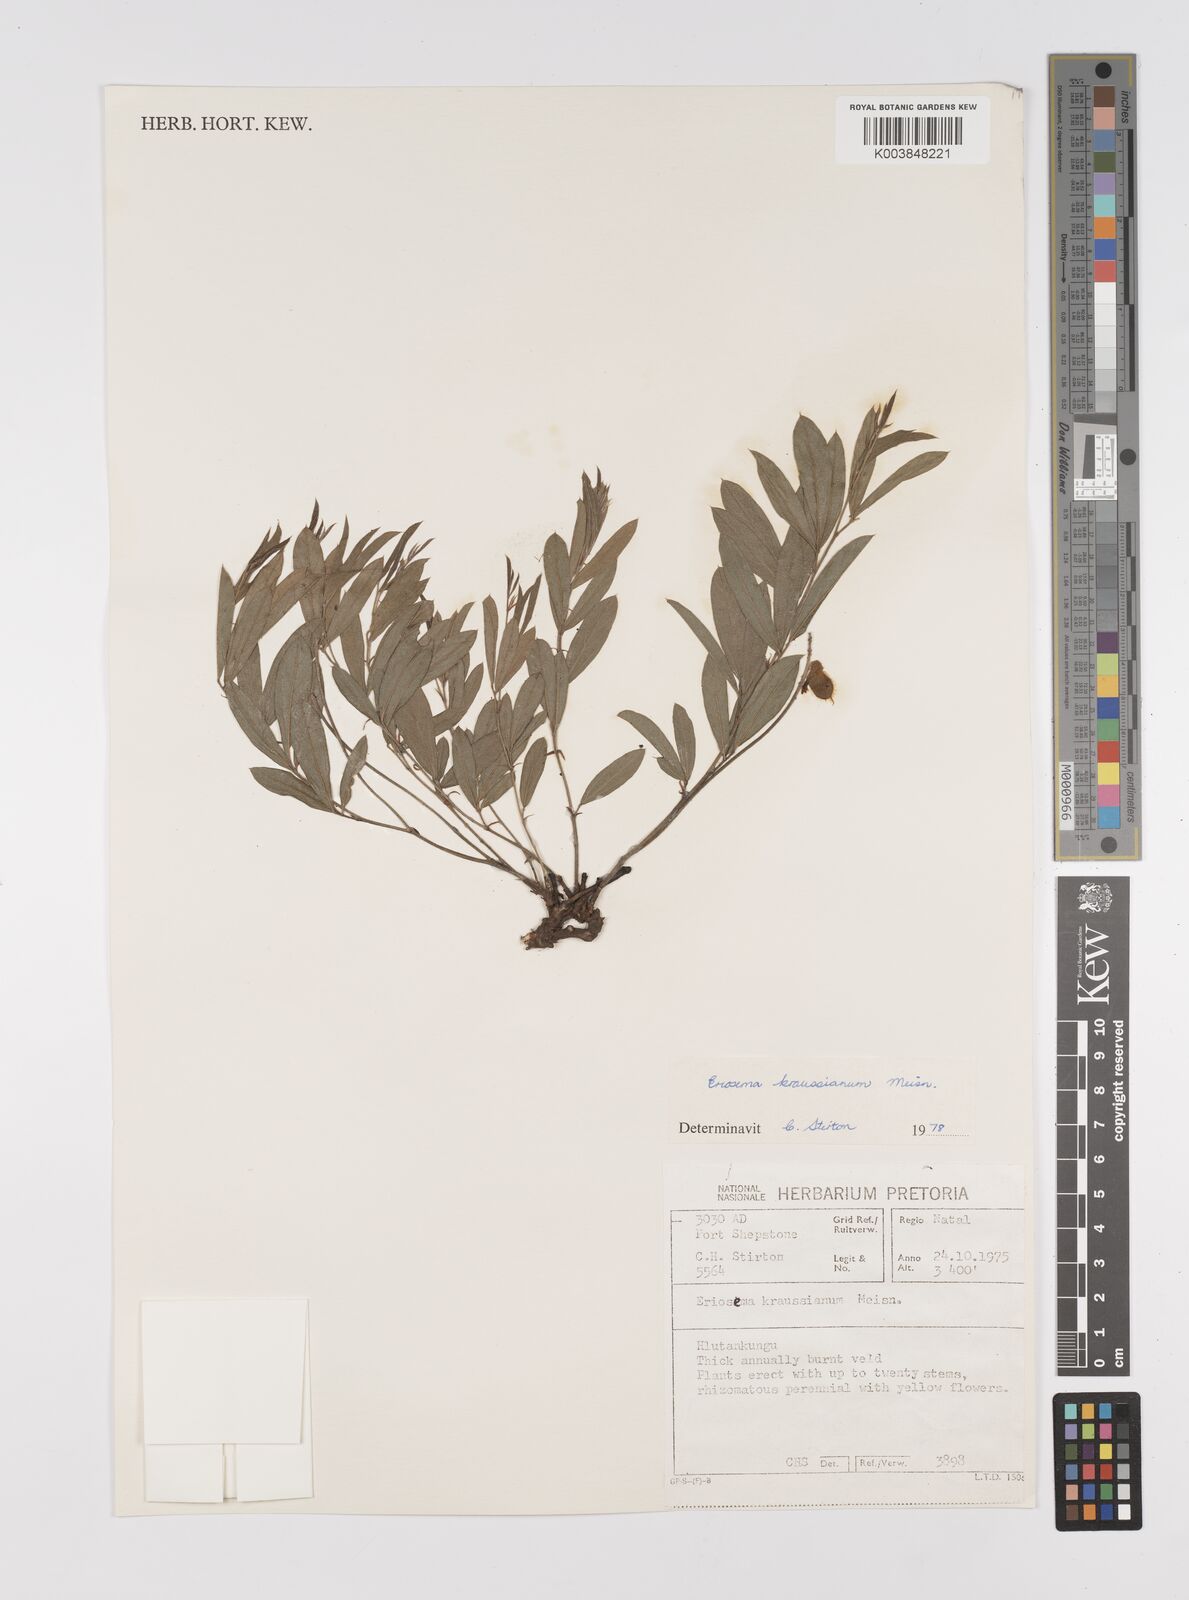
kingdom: Plantae
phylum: Tracheophyta
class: Magnoliopsida
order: Fabales
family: Fabaceae
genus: Eriosema
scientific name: Eriosema kraussianum
